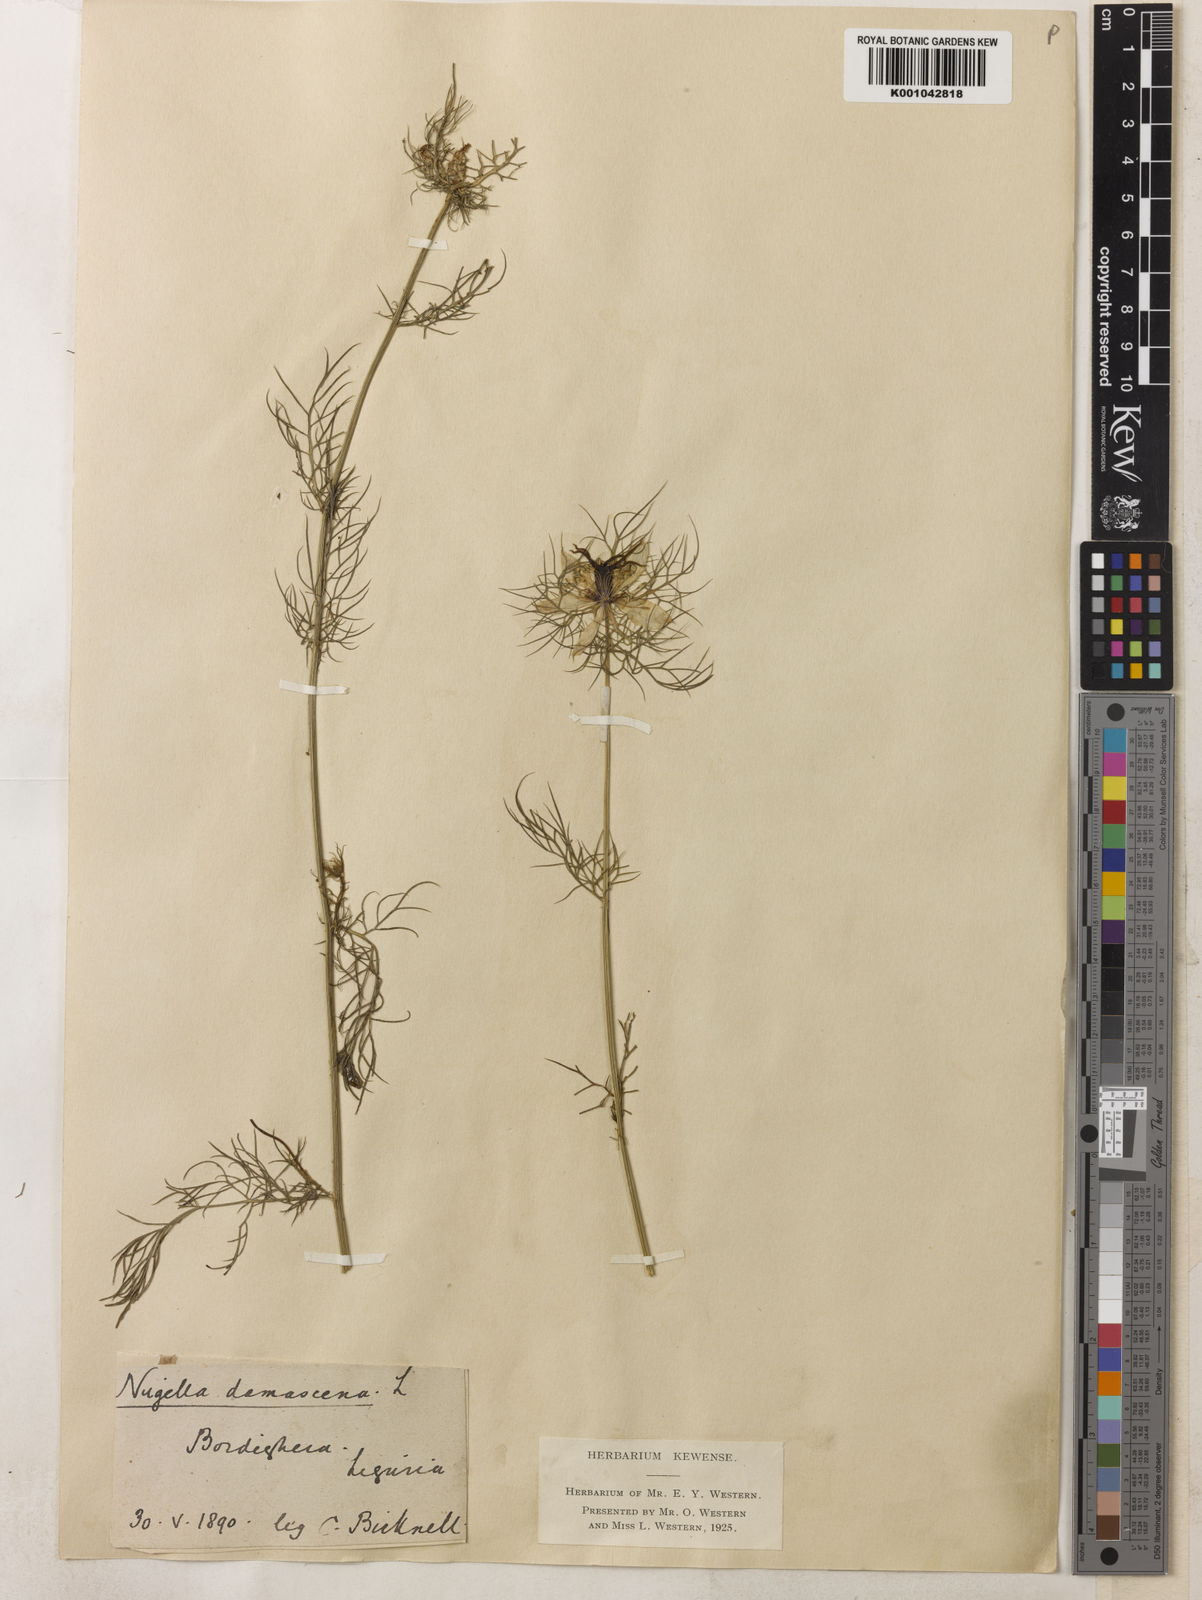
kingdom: Plantae
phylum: Tracheophyta
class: Magnoliopsida
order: Ranunculales
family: Ranunculaceae
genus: Nigella
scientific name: Nigella damascena
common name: Love-in-a-mist
